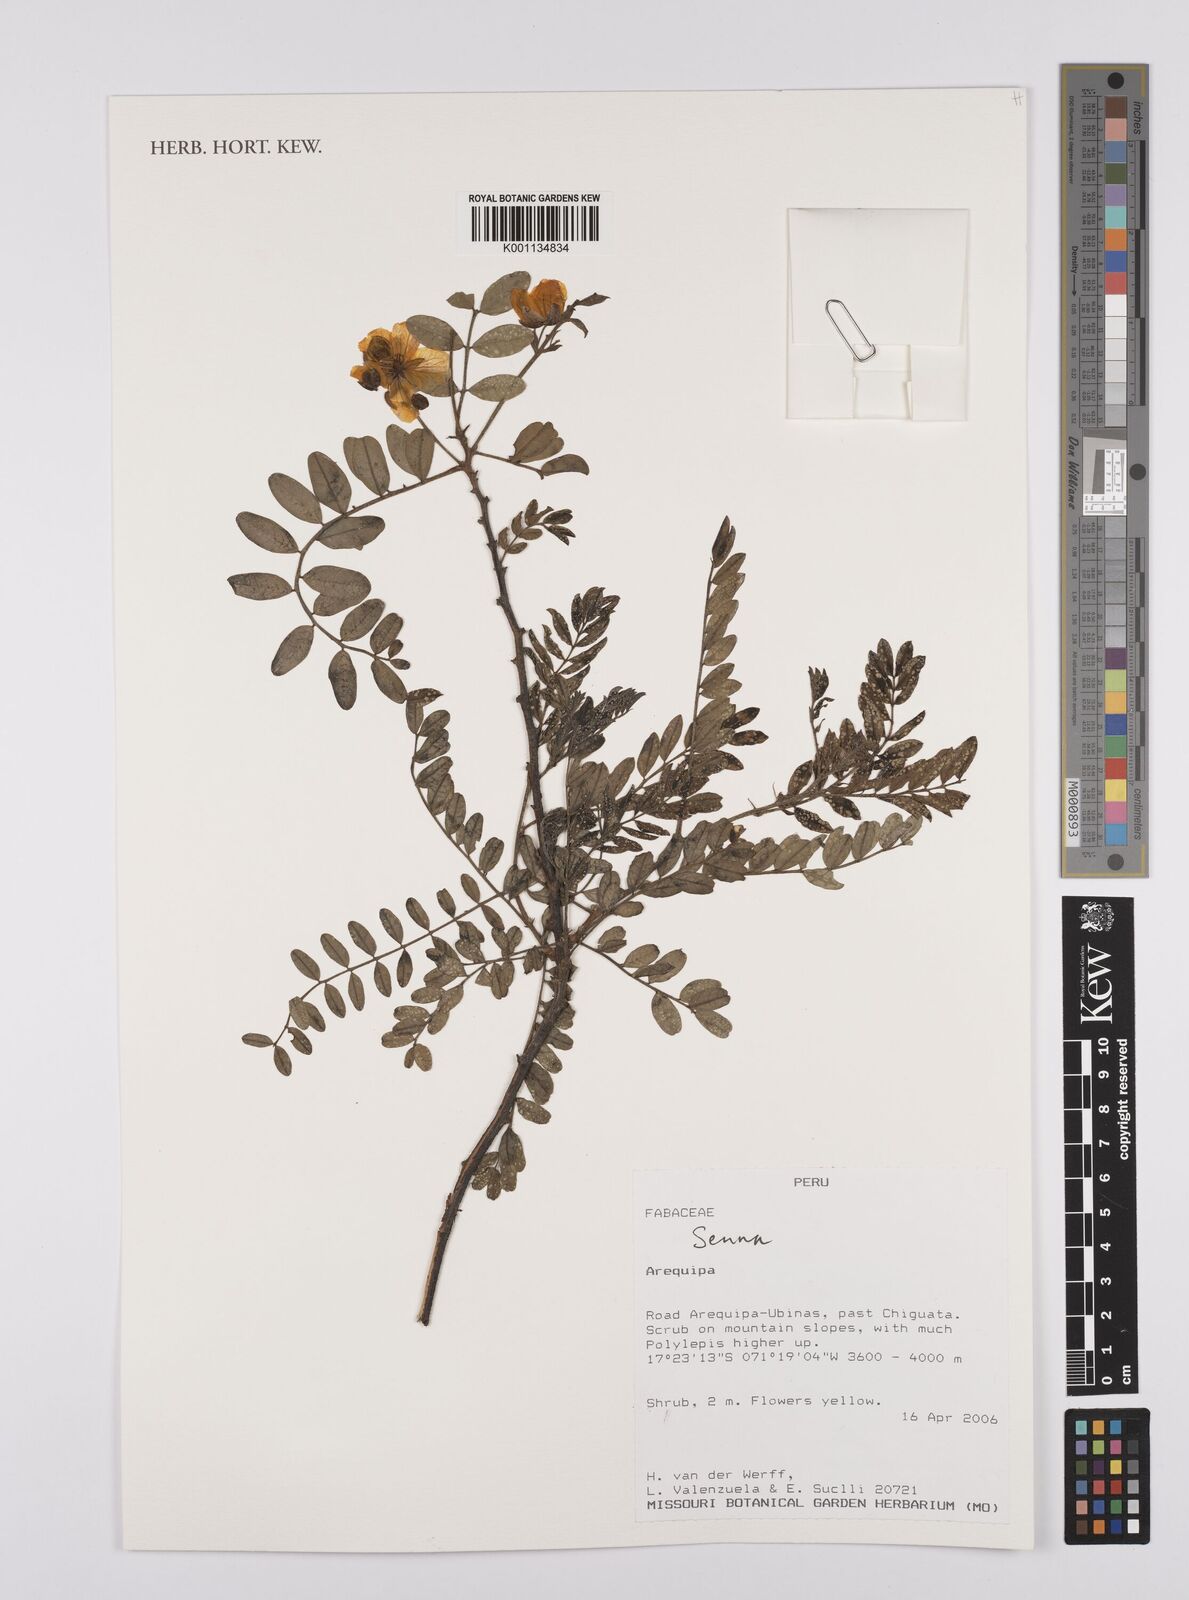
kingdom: Plantae
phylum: Tracheophyta
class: Magnoliopsida
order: Fabales
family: Fabaceae
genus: Senna
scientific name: Senna
